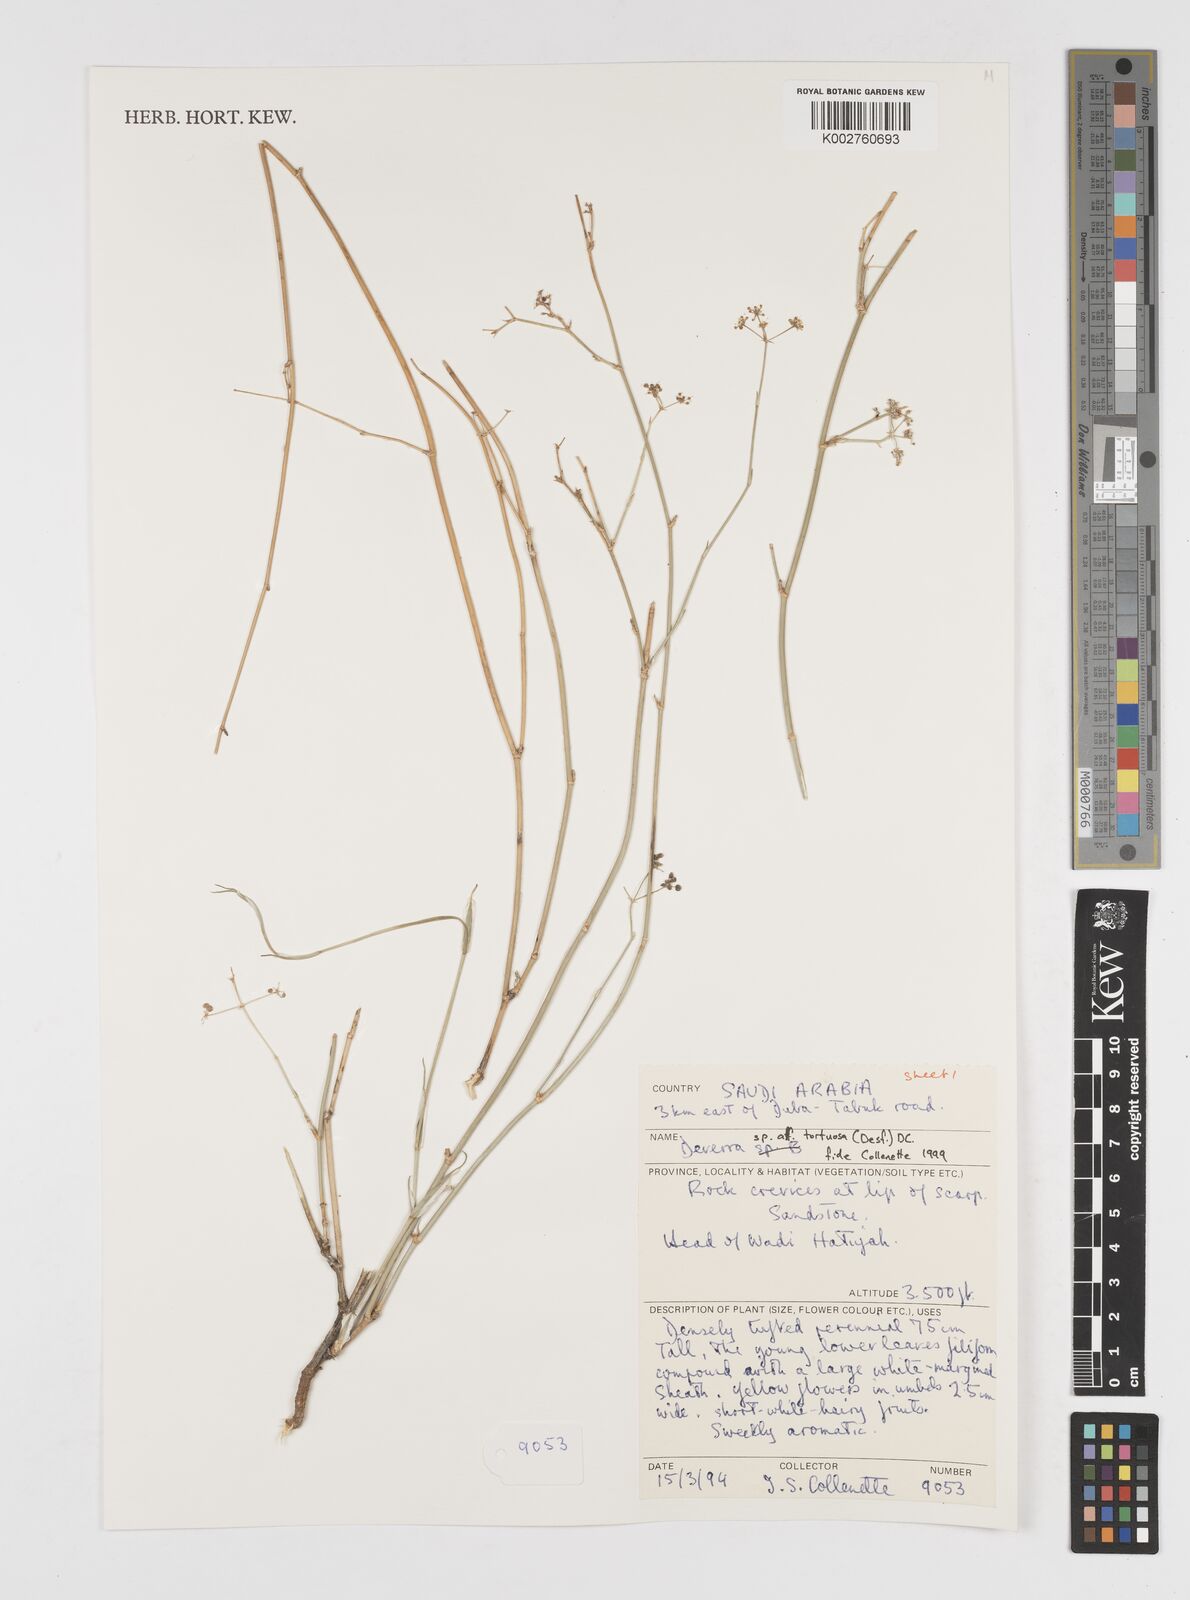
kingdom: Plantae
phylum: Tracheophyta
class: Magnoliopsida
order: Apiales
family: Apiaceae
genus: Deverra
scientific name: Deverra tortuosa
